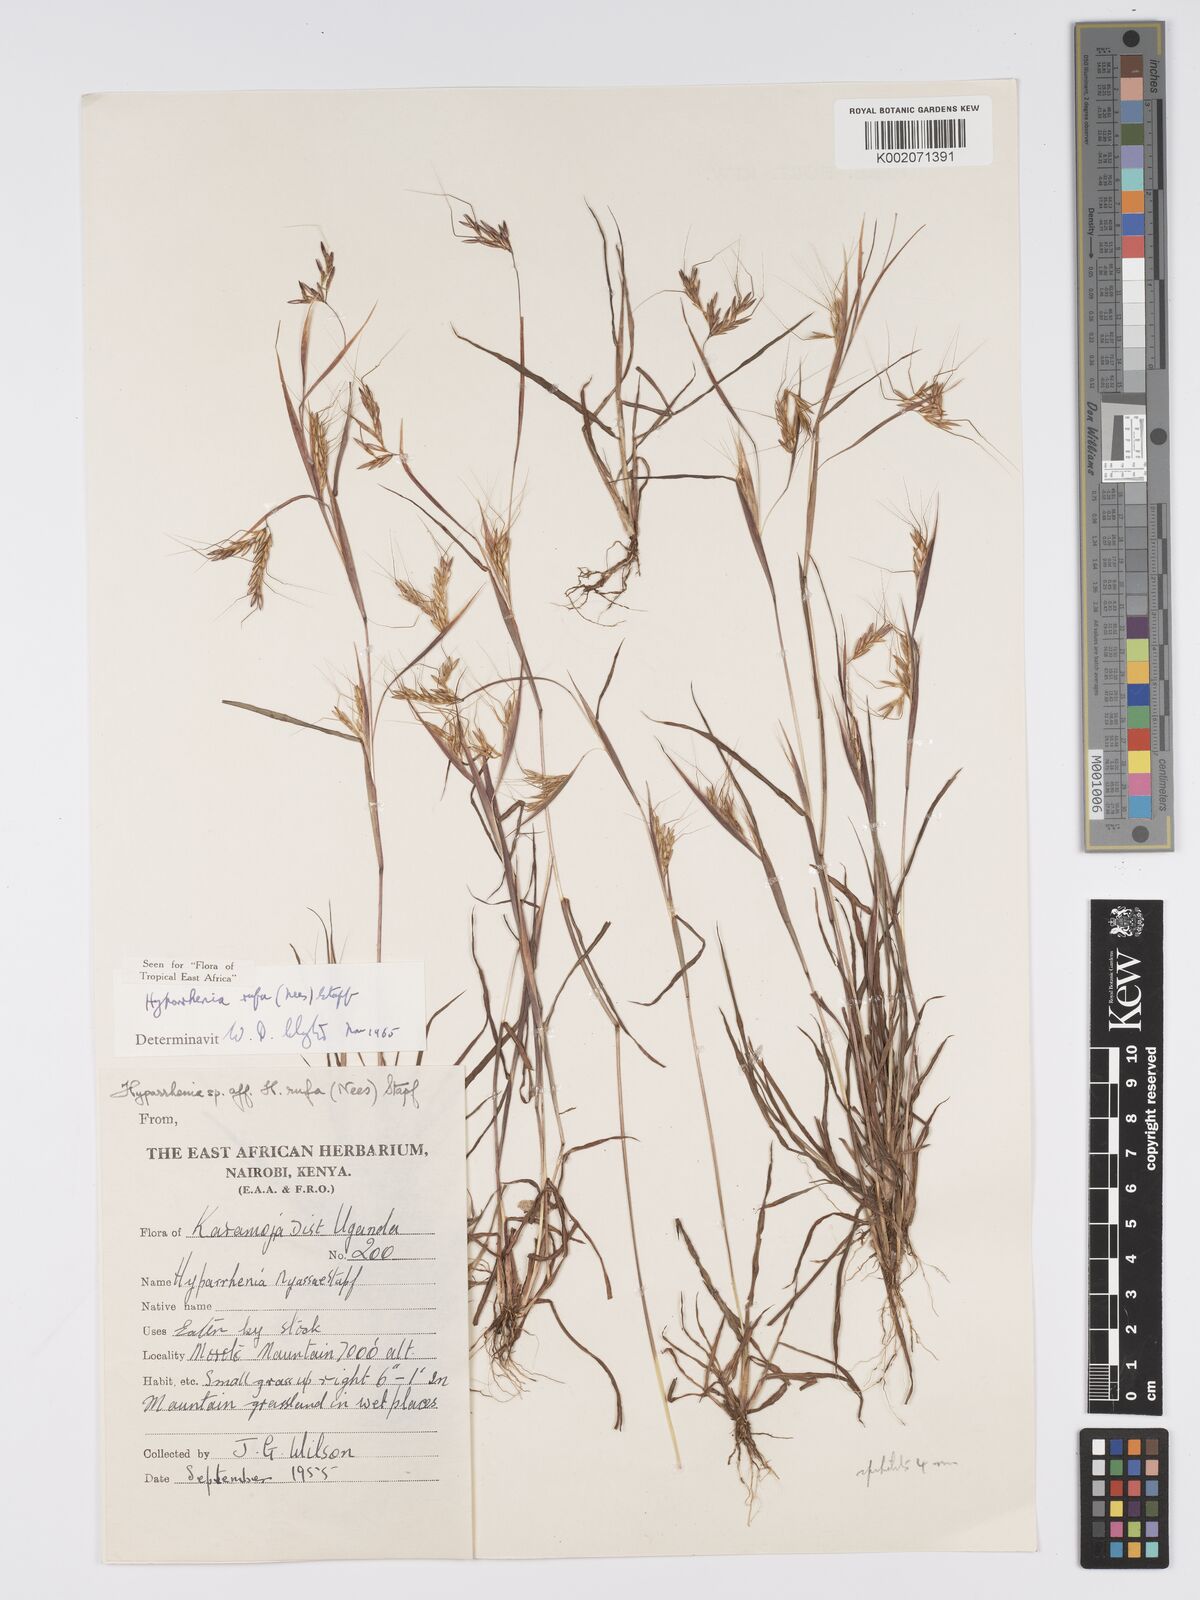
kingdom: Plantae
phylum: Tracheophyta
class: Liliopsida
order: Poales
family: Poaceae
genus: Hyparrhenia
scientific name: Hyparrhenia rufa
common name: Jaraguagrass
